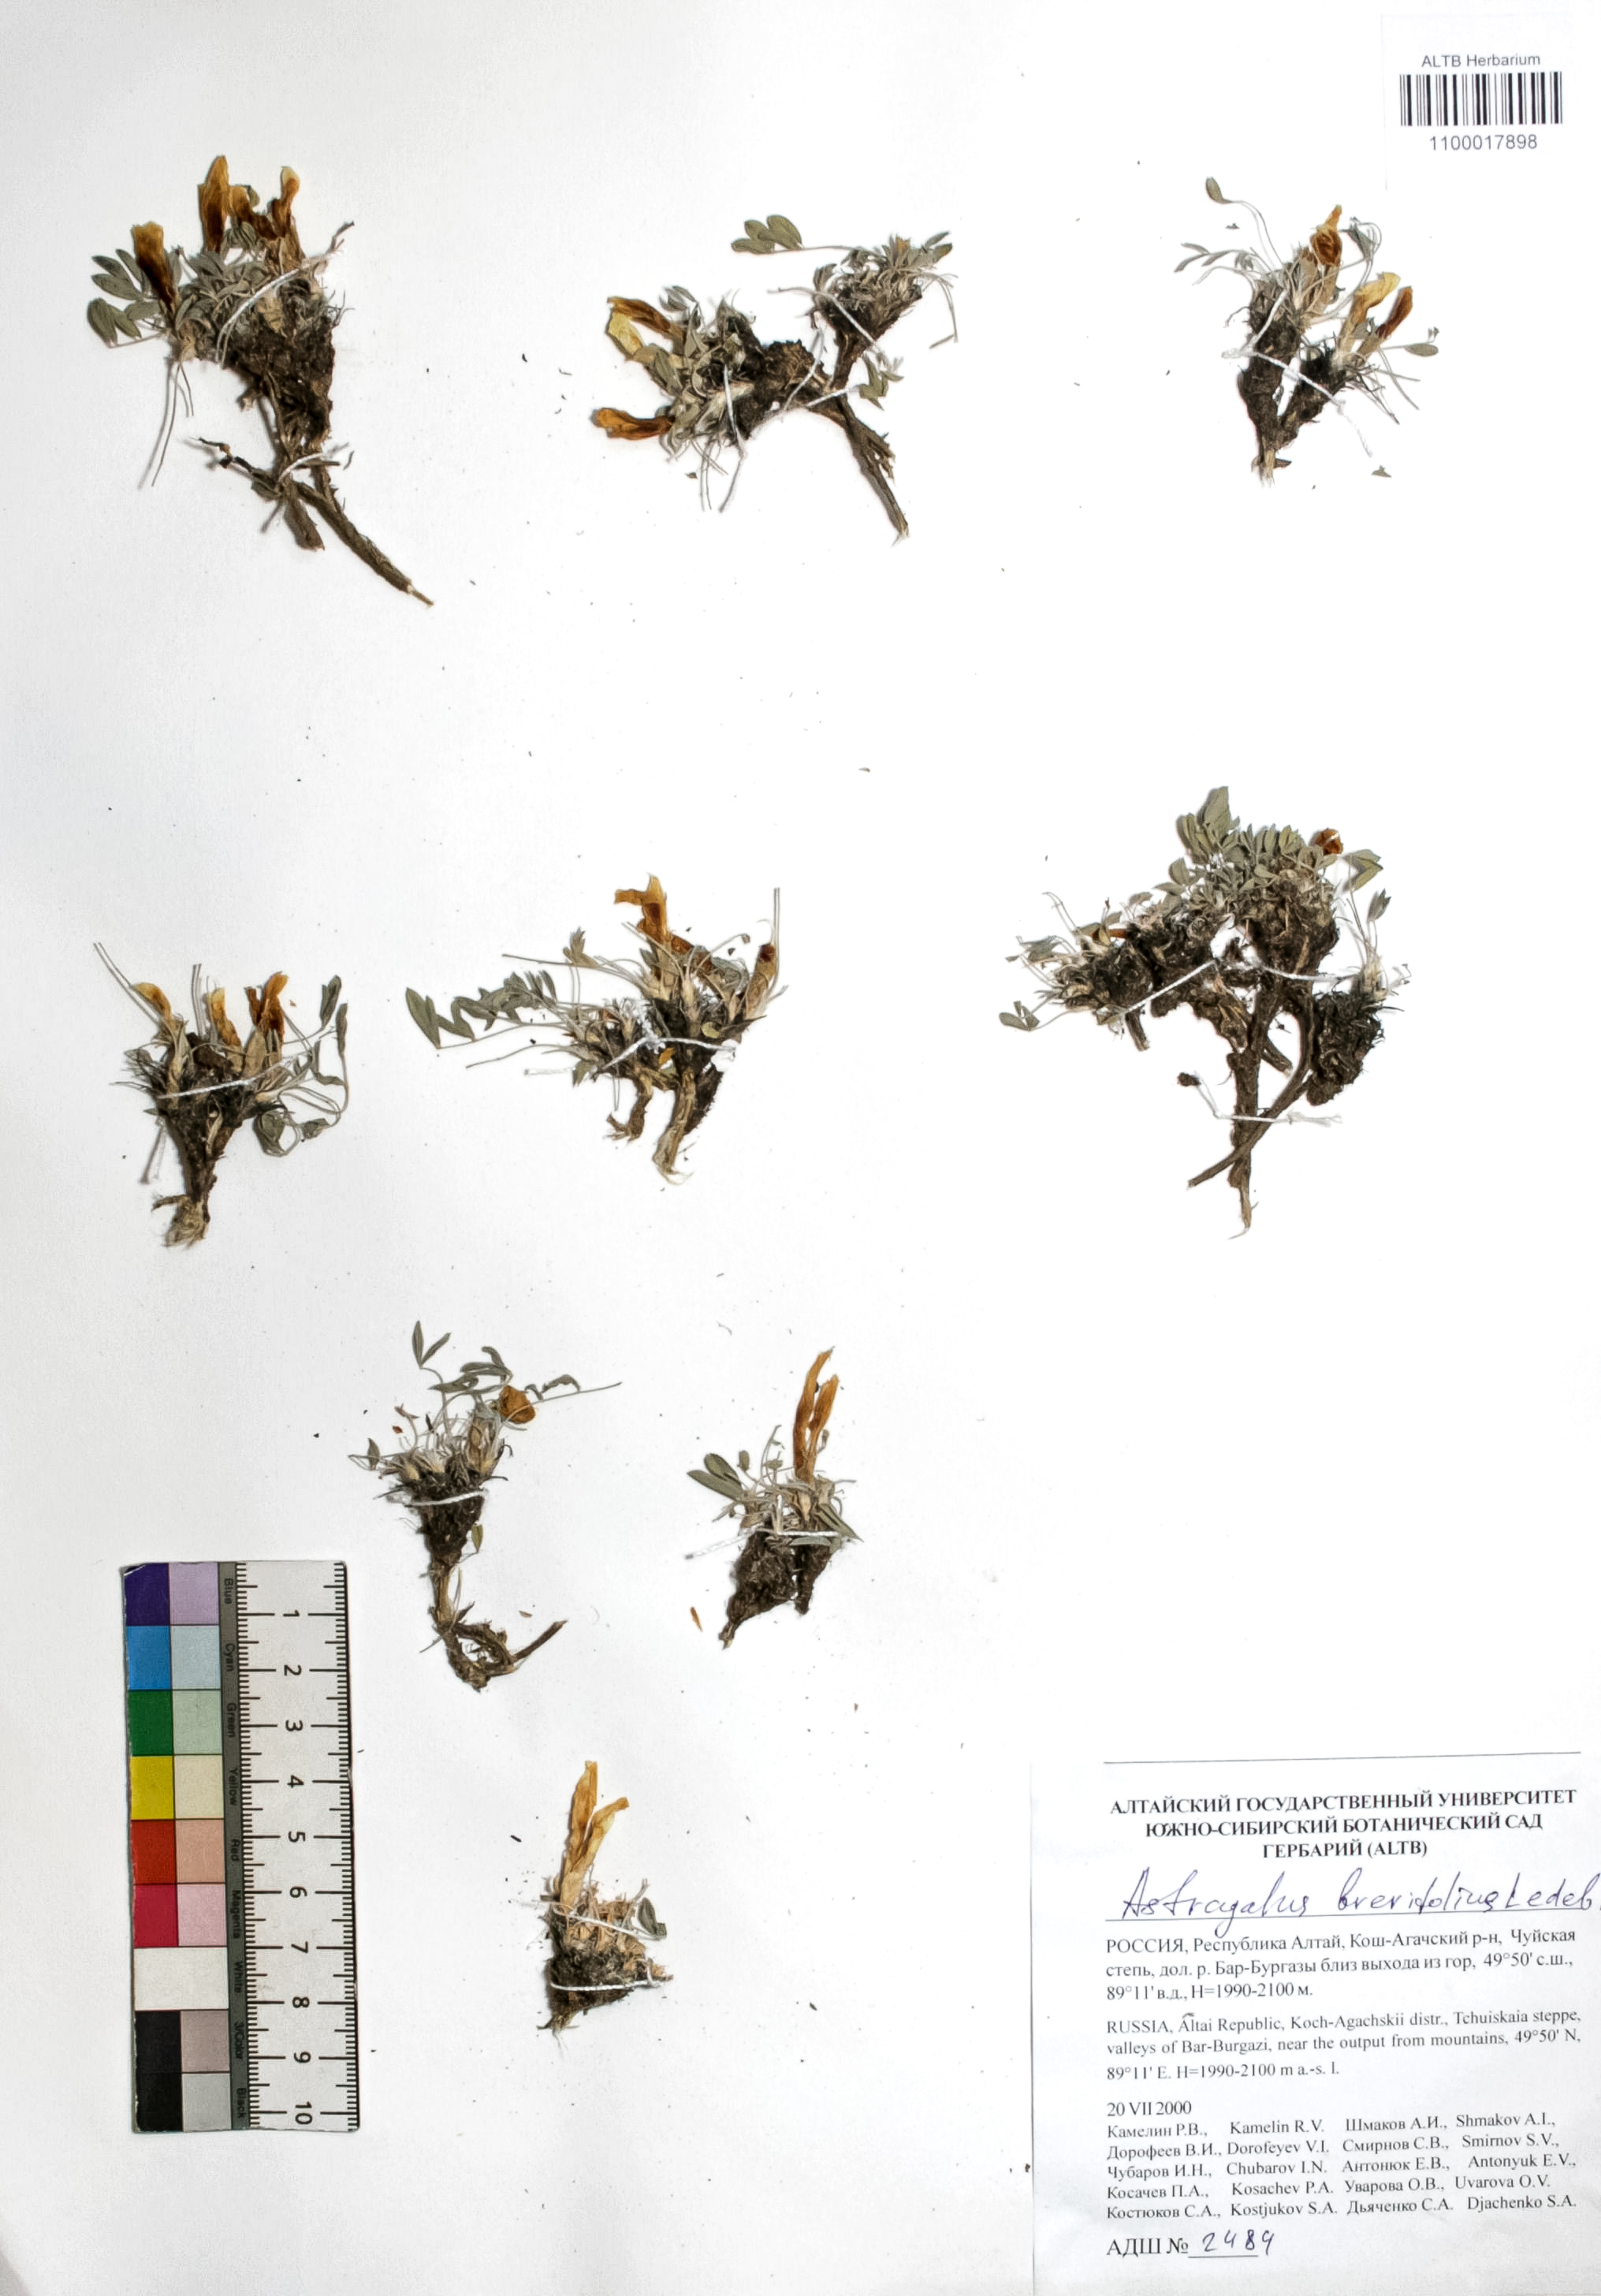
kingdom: Plantae
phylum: Tracheophyta
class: Magnoliopsida
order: Fabales
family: Fabaceae
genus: Astragalus
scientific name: Astragalus brevifolius
